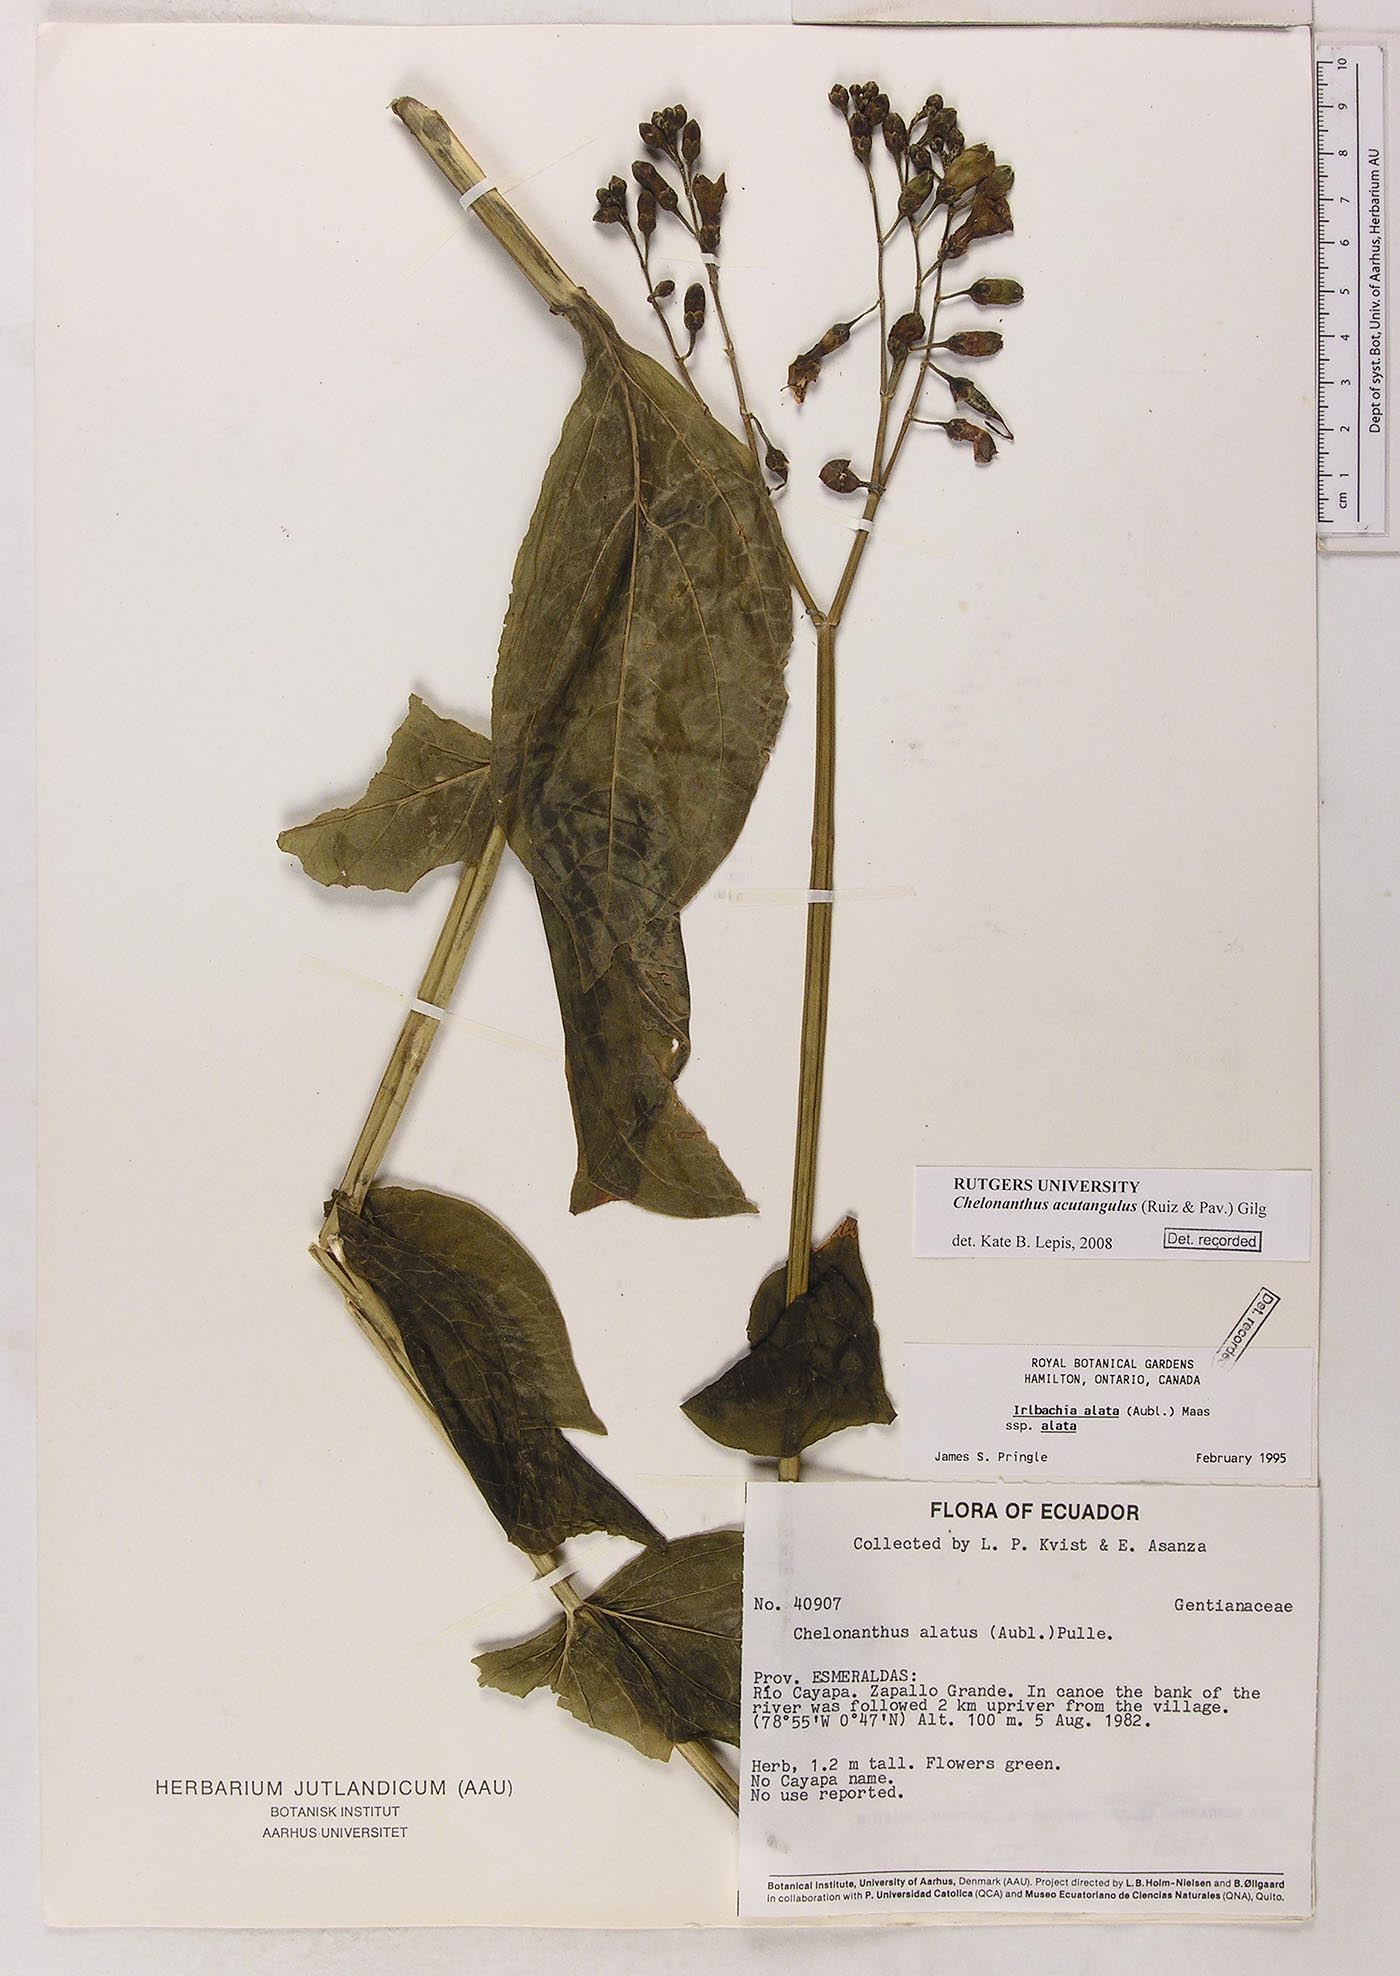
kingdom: Plantae
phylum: Tracheophyta
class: Magnoliopsida
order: Gentianales
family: Gentianaceae
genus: Chelonanthus
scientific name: Chelonanthus alatus
